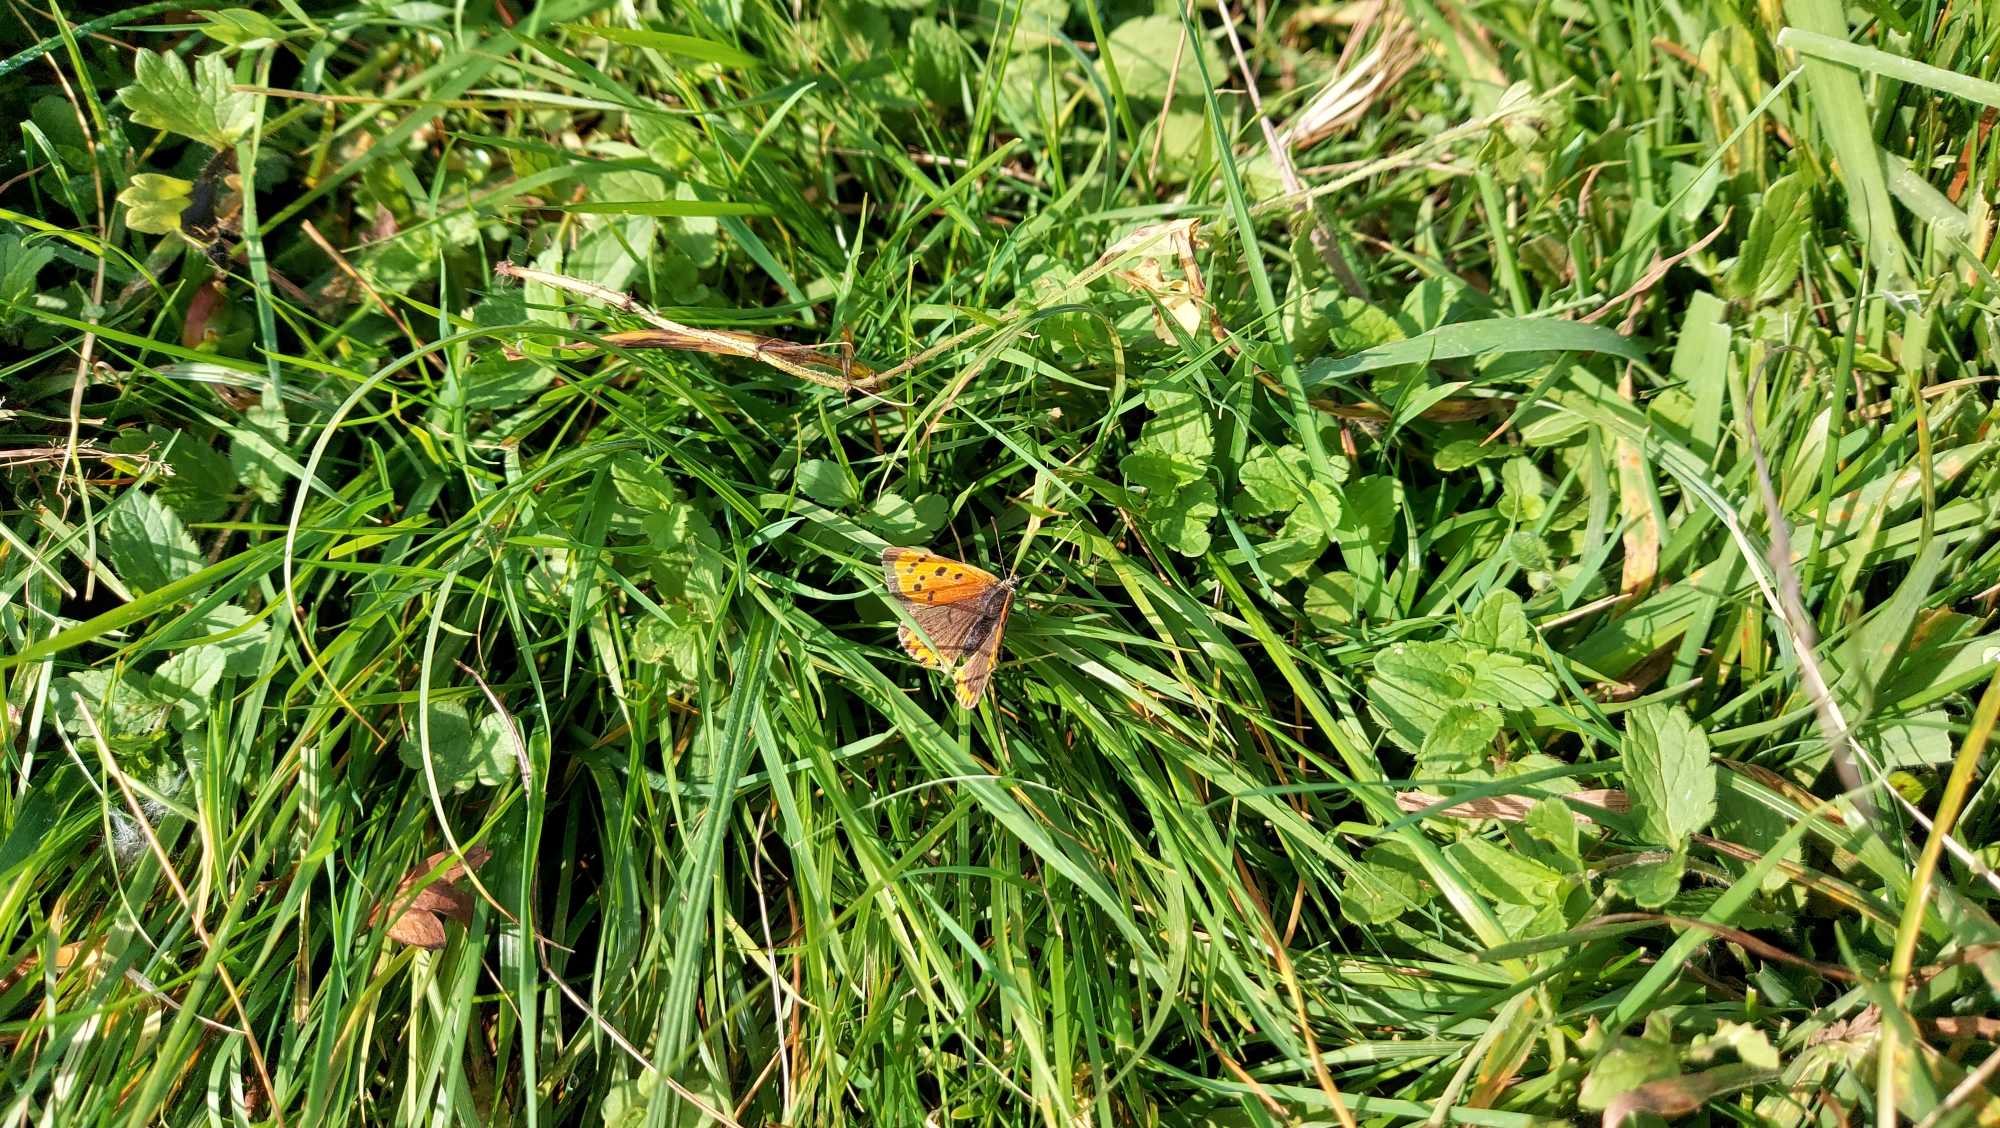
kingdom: Animalia
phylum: Arthropoda
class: Insecta
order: Lepidoptera
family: Lycaenidae
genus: Lycaena
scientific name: Lycaena phlaeas
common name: Lille ildfugl
